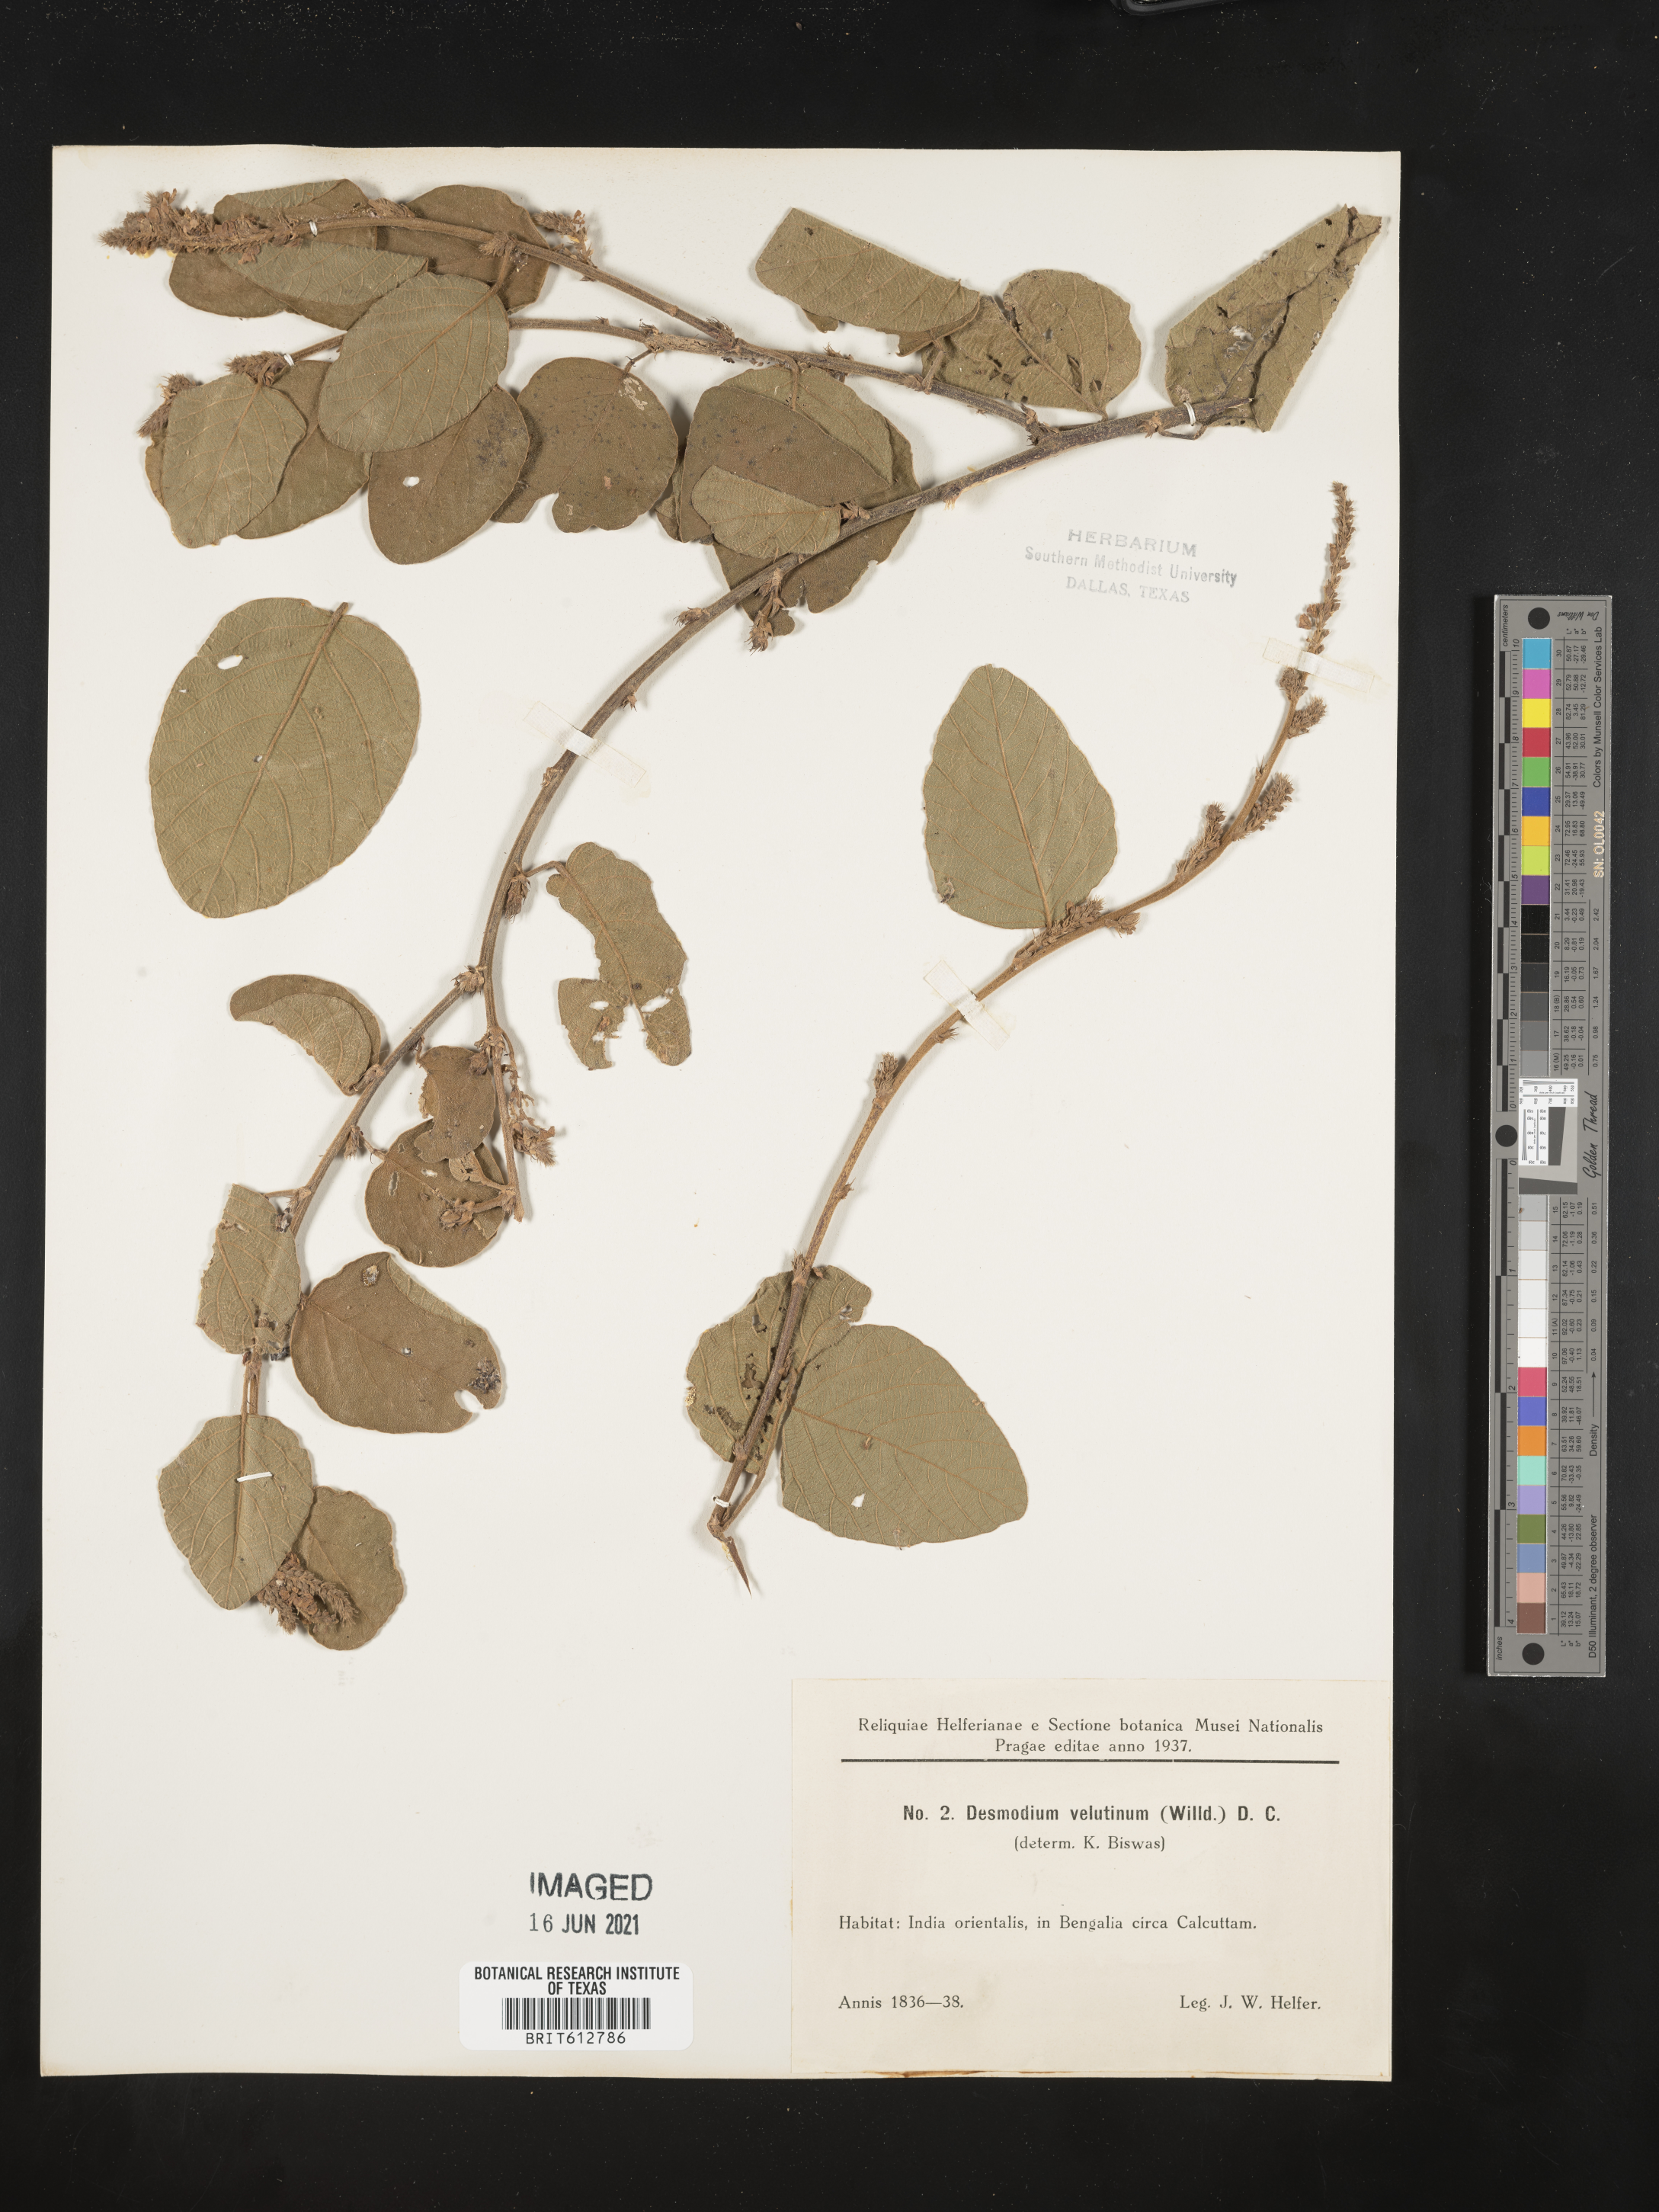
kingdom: Plantae
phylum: Tracheophyta
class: Magnoliopsida
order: Fabales
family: Fabaceae
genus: Polhillides
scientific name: Polhillides velutina
